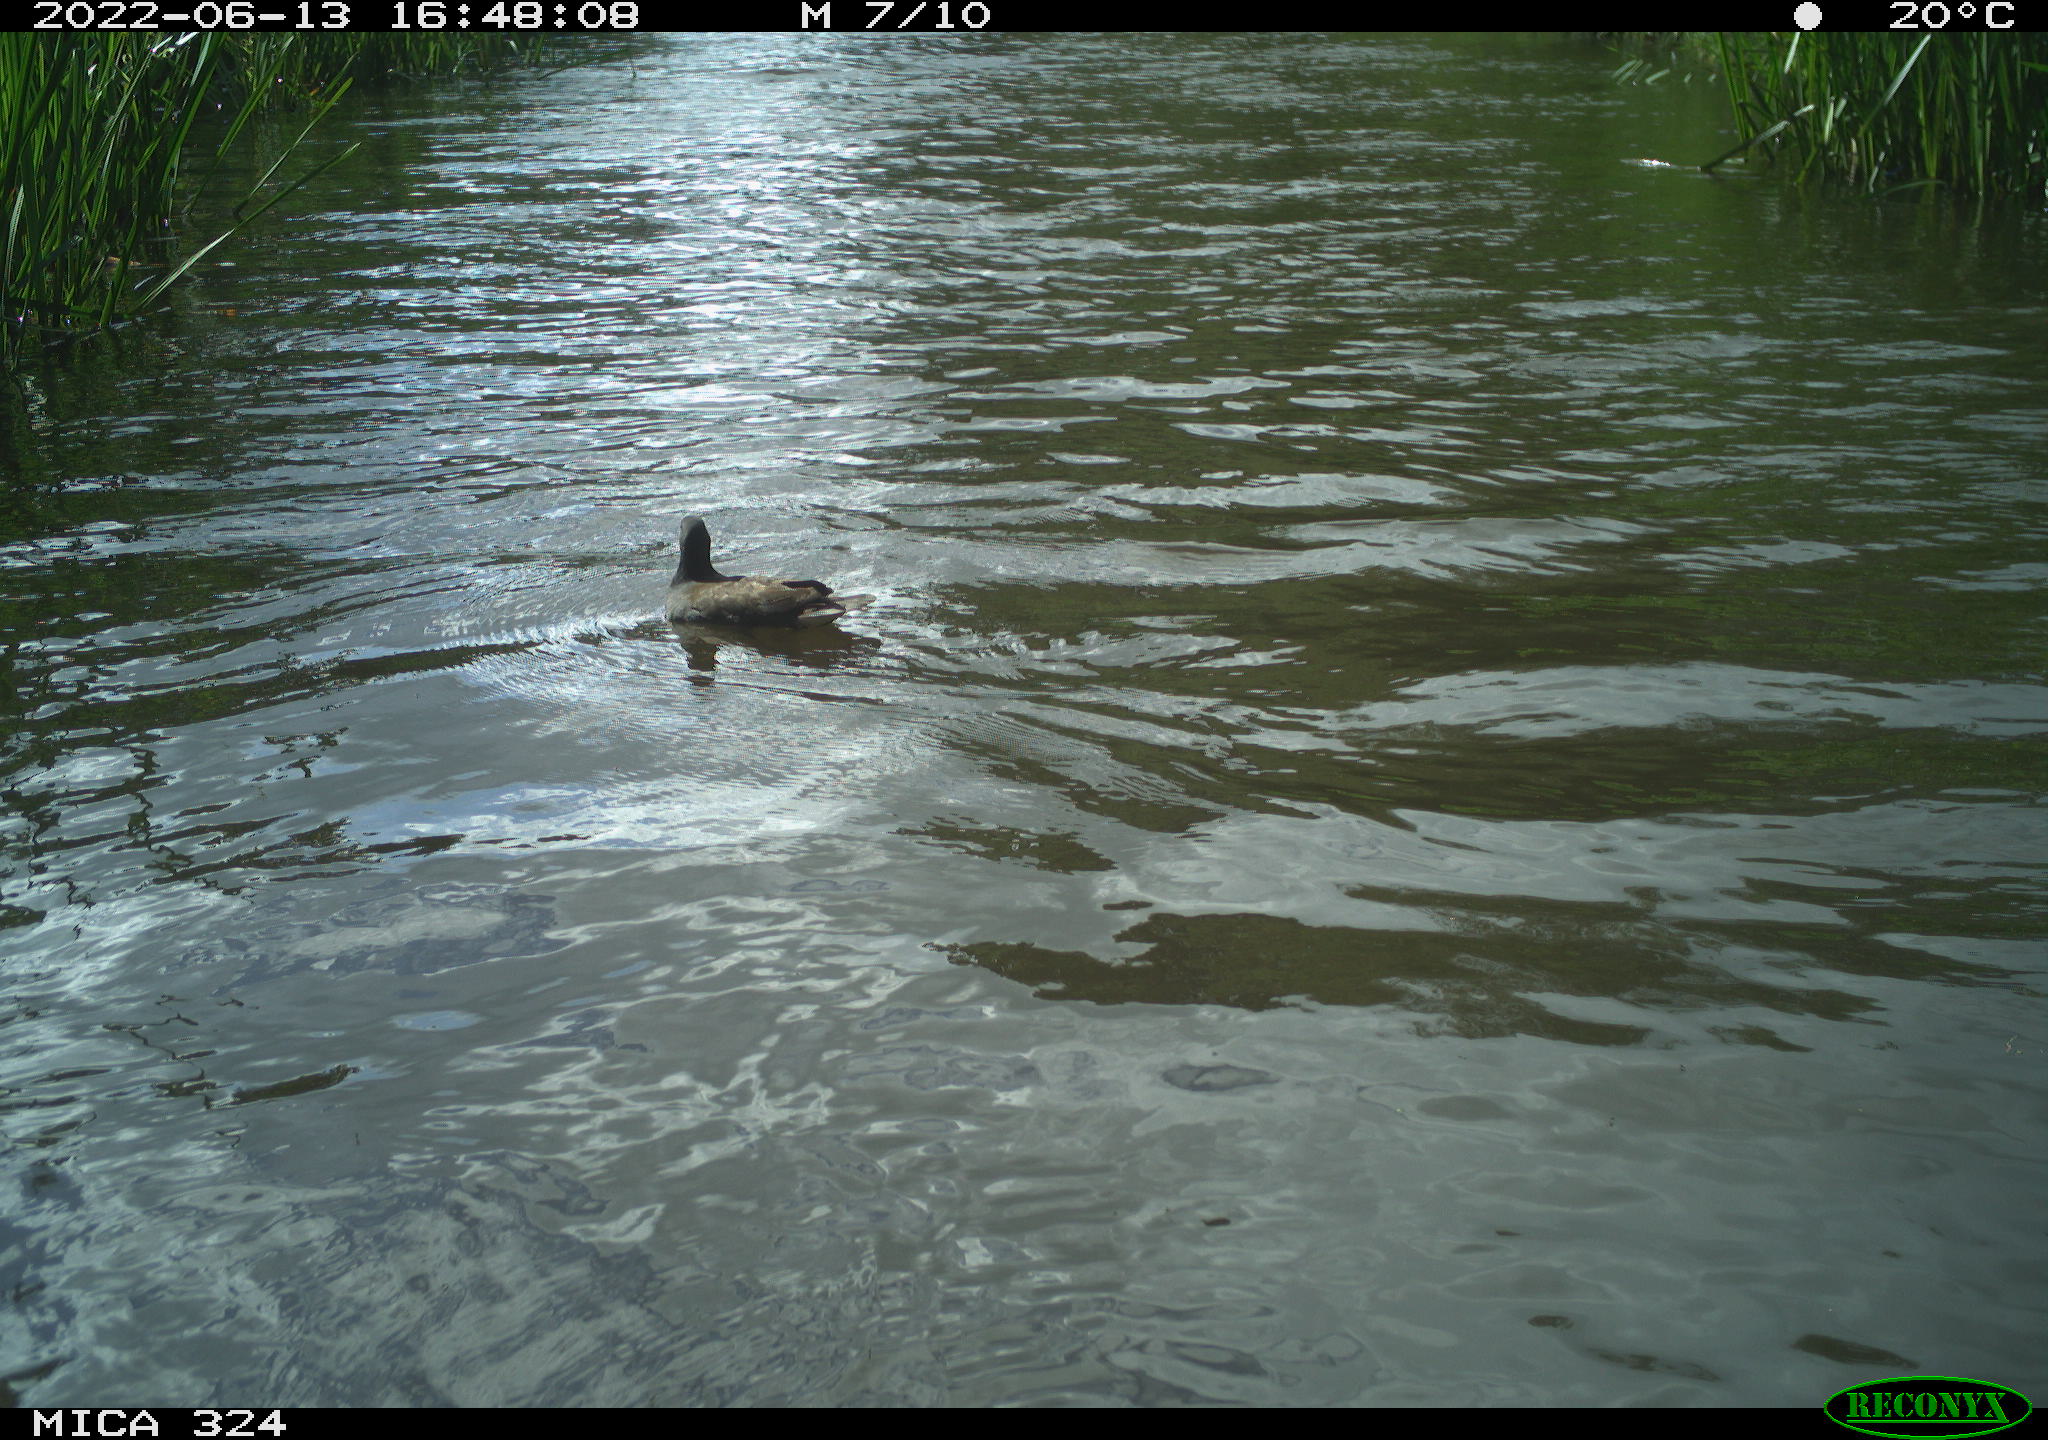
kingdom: Animalia
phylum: Chordata
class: Aves
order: Gruiformes
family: Rallidae
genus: Gallinula
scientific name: Gallinula chloropus
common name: Common moorhen
